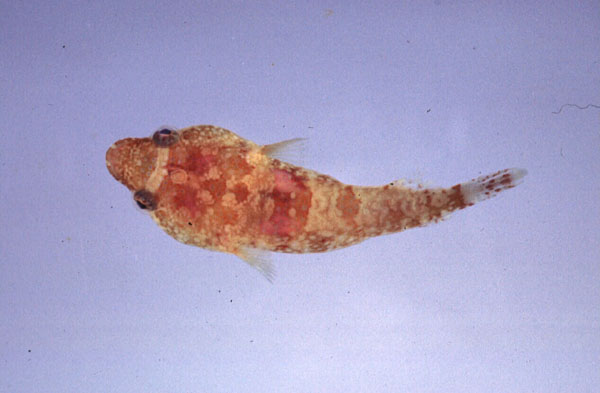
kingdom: Animalia
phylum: Chordata
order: Gobiesociformes
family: Gobiesocidae
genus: Apletodon
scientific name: Apletodon pellegrini
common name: Chubby clingfish
